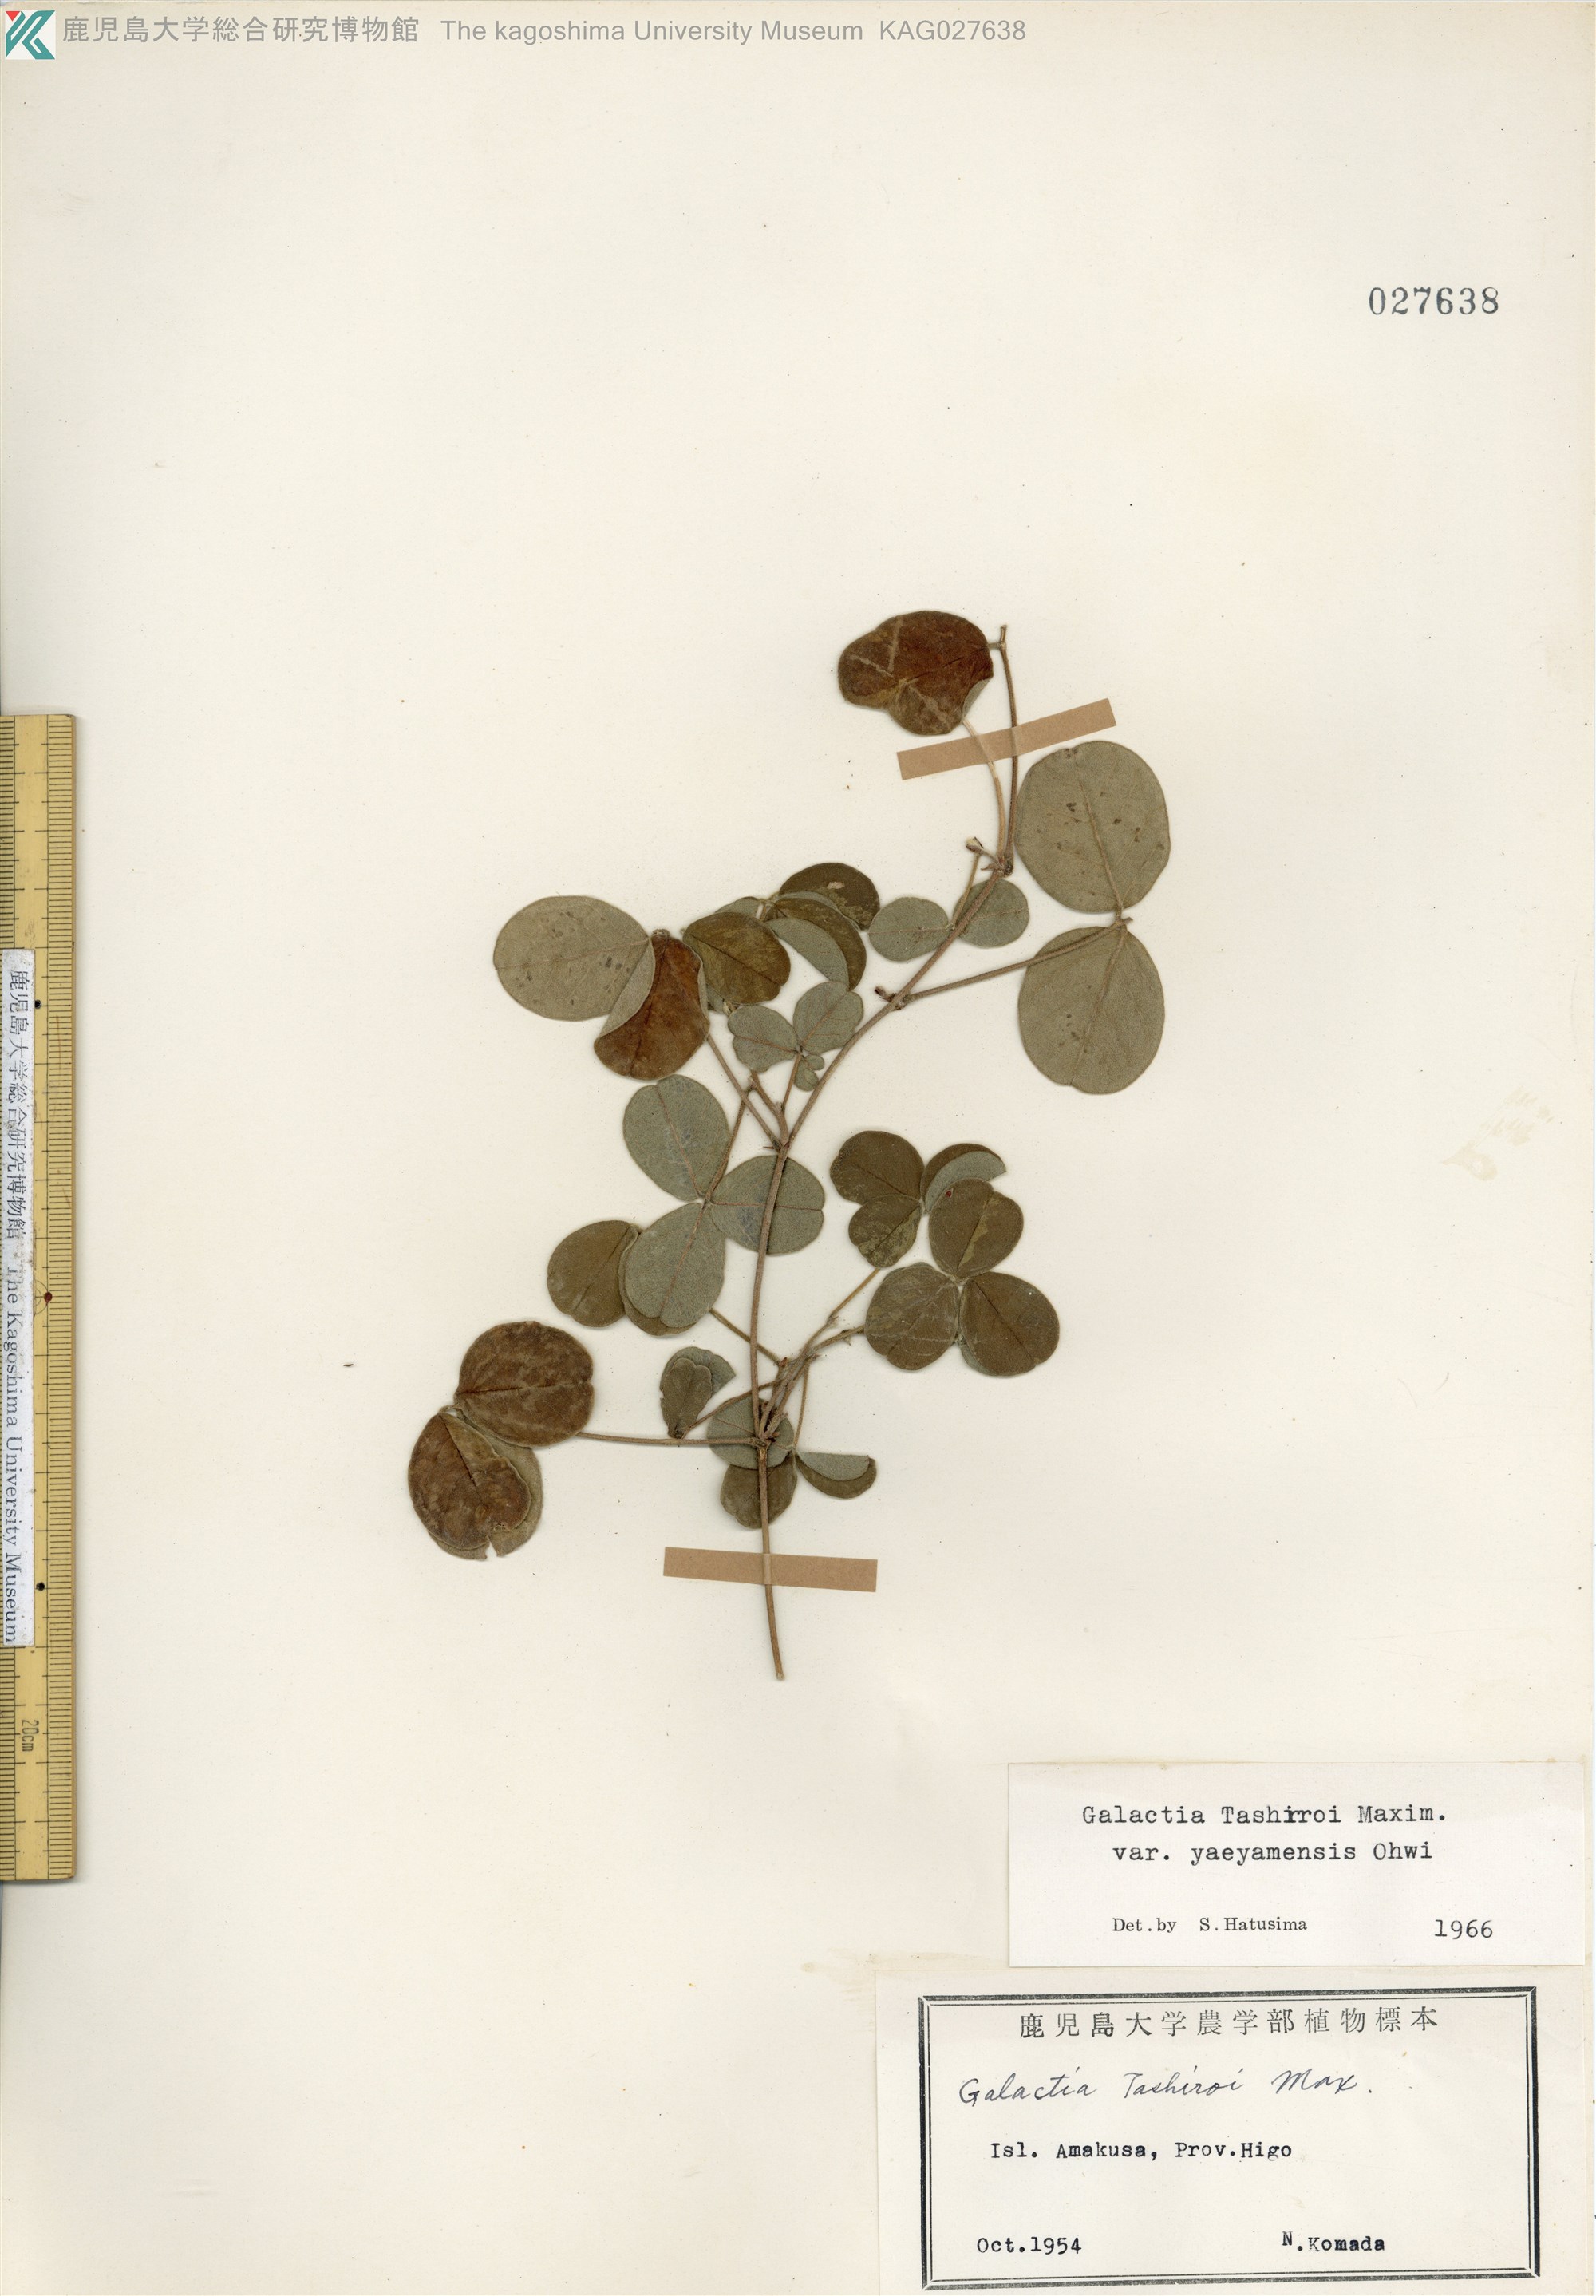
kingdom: Plantae
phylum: Tracheophyta
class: Magnoliopsida
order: Fabales
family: Fabaceae
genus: Galactia
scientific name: Galactia tashiroi
